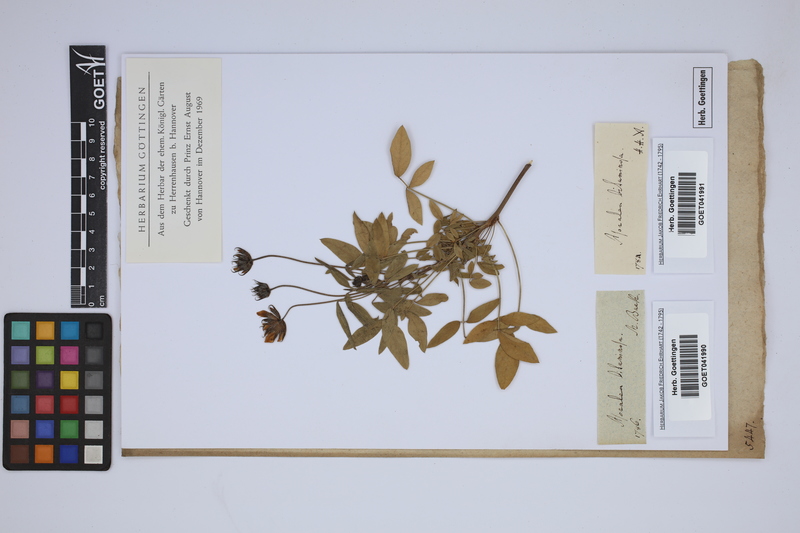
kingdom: Plantae
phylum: Tracheophyta
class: Magnoliopsida
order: Fabales
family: Fabaceae
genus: Bituminaria
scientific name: Bituminaria bituminosa
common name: Arabian pea
